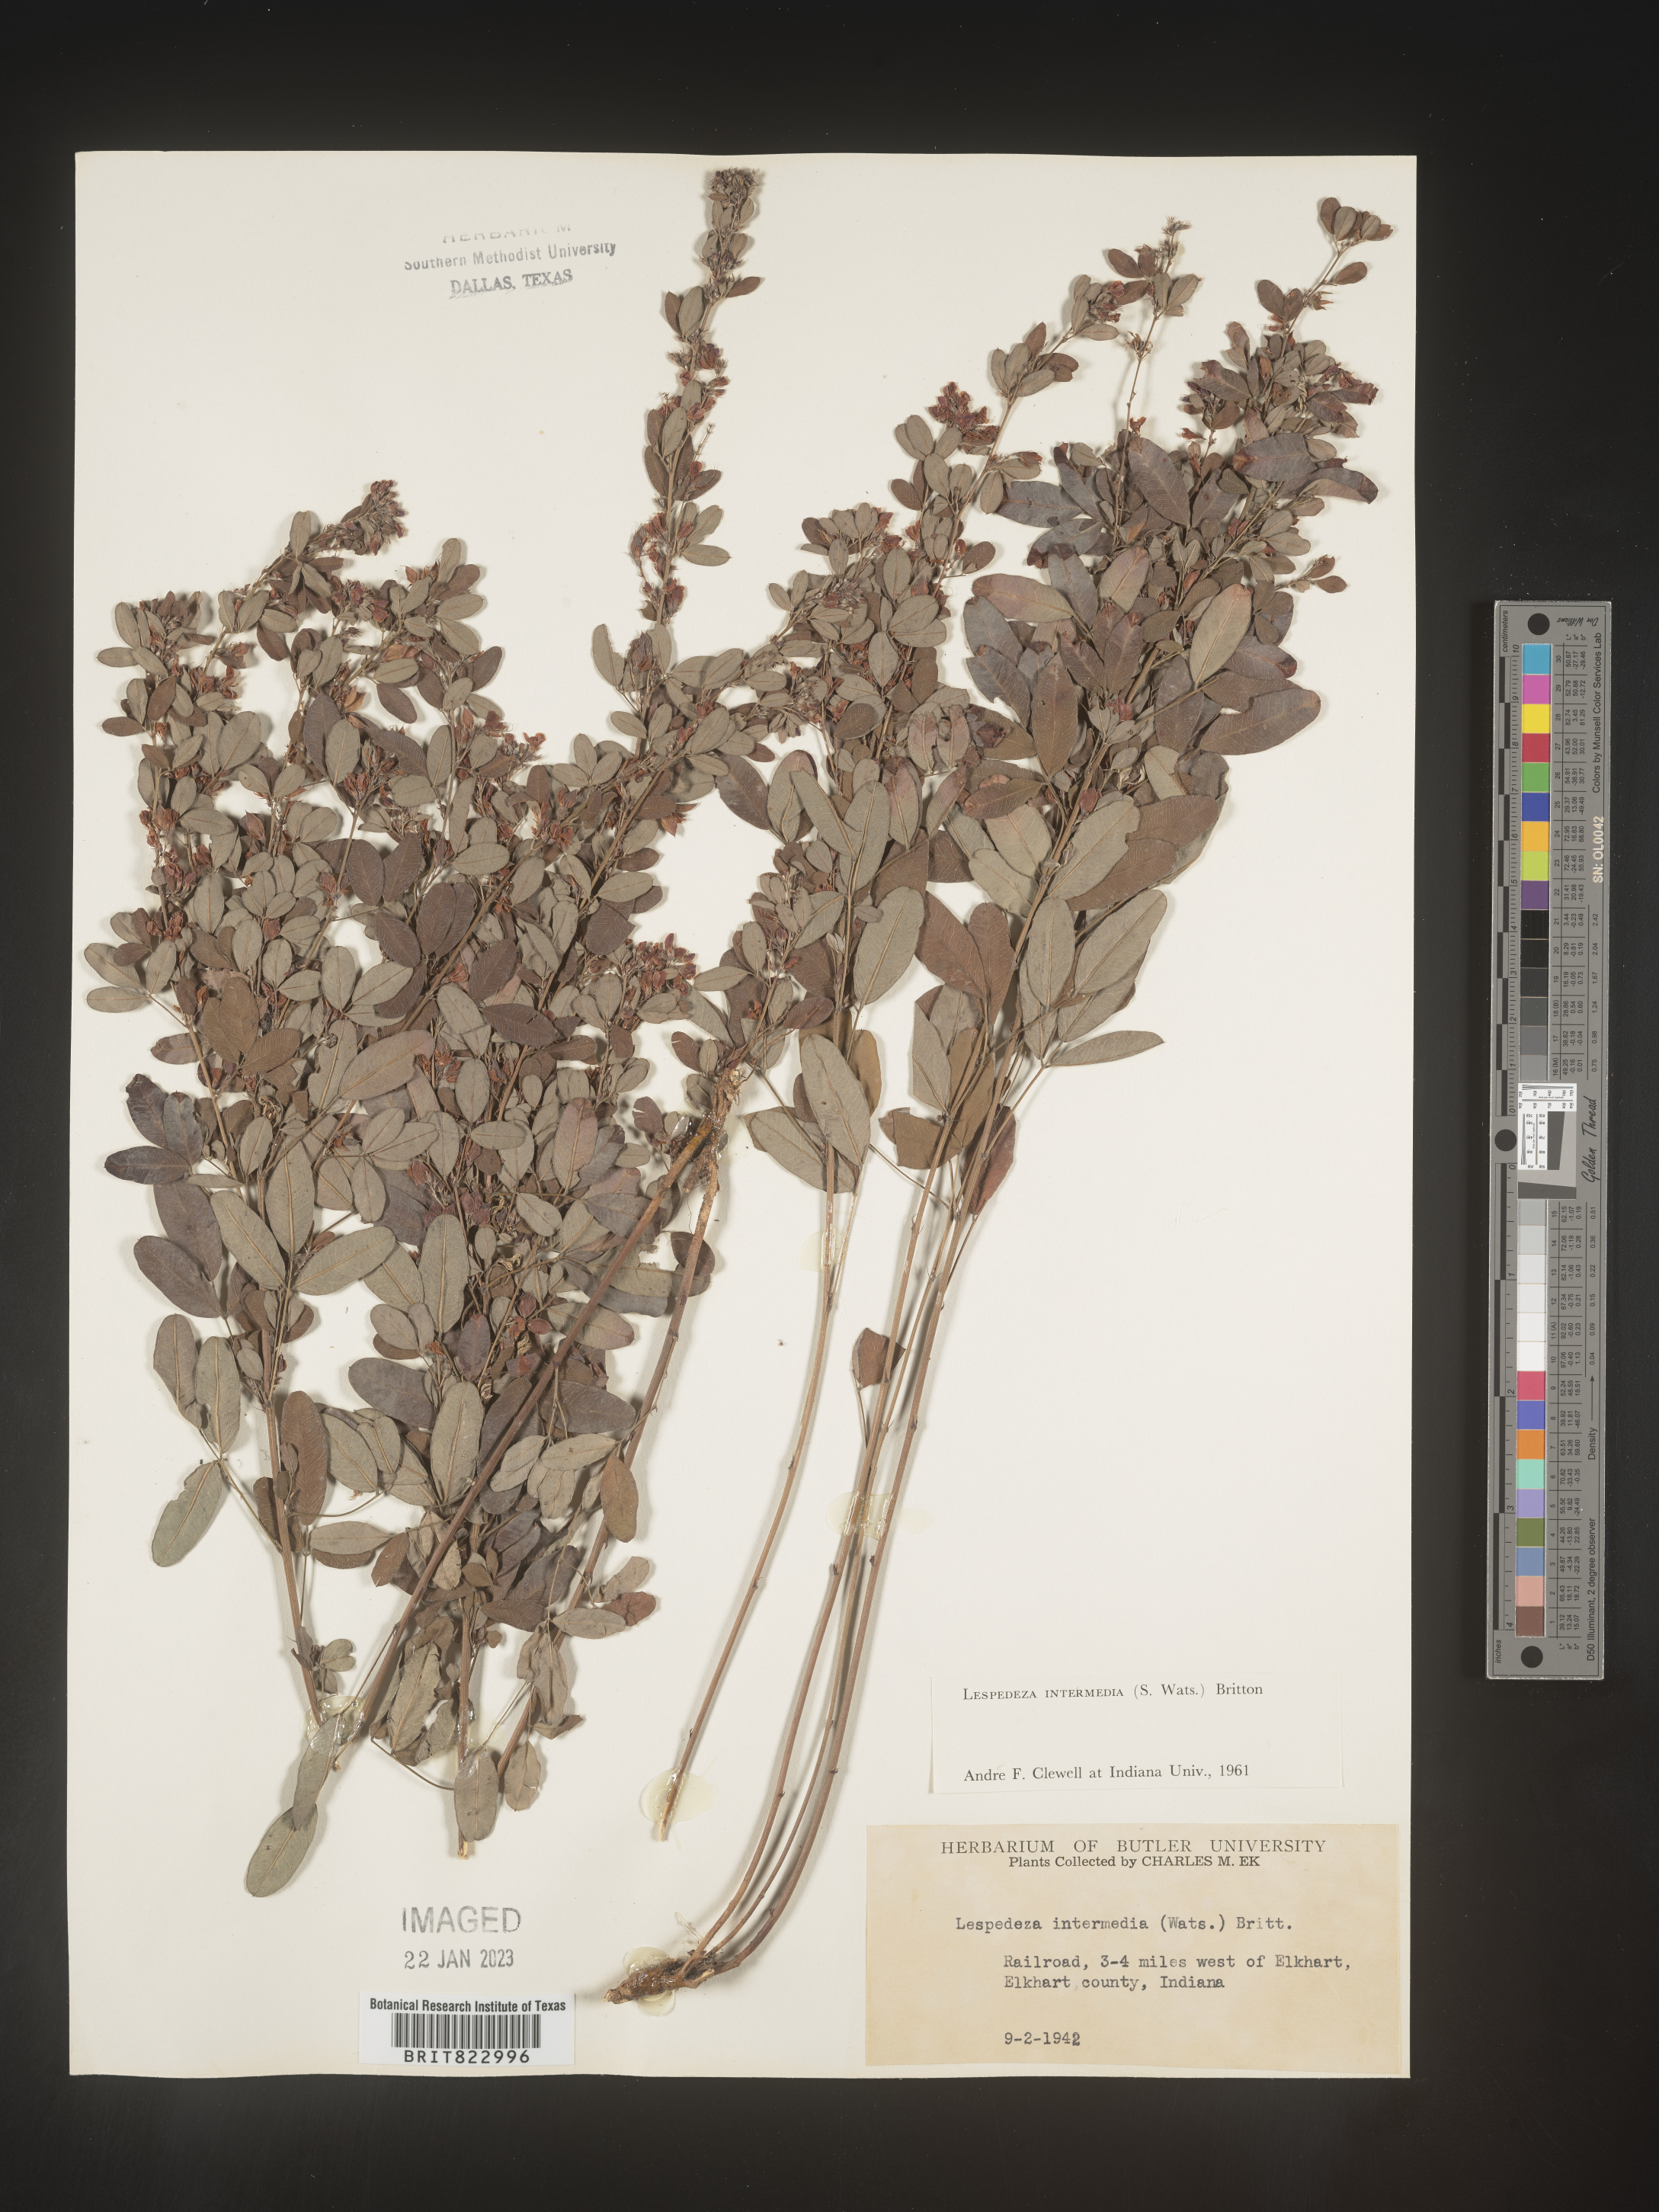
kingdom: Plantae
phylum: Tracheophyta
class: Magnoliopsida
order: Fabales
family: Fabaceae
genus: Lespedeza
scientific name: Lespedeza
